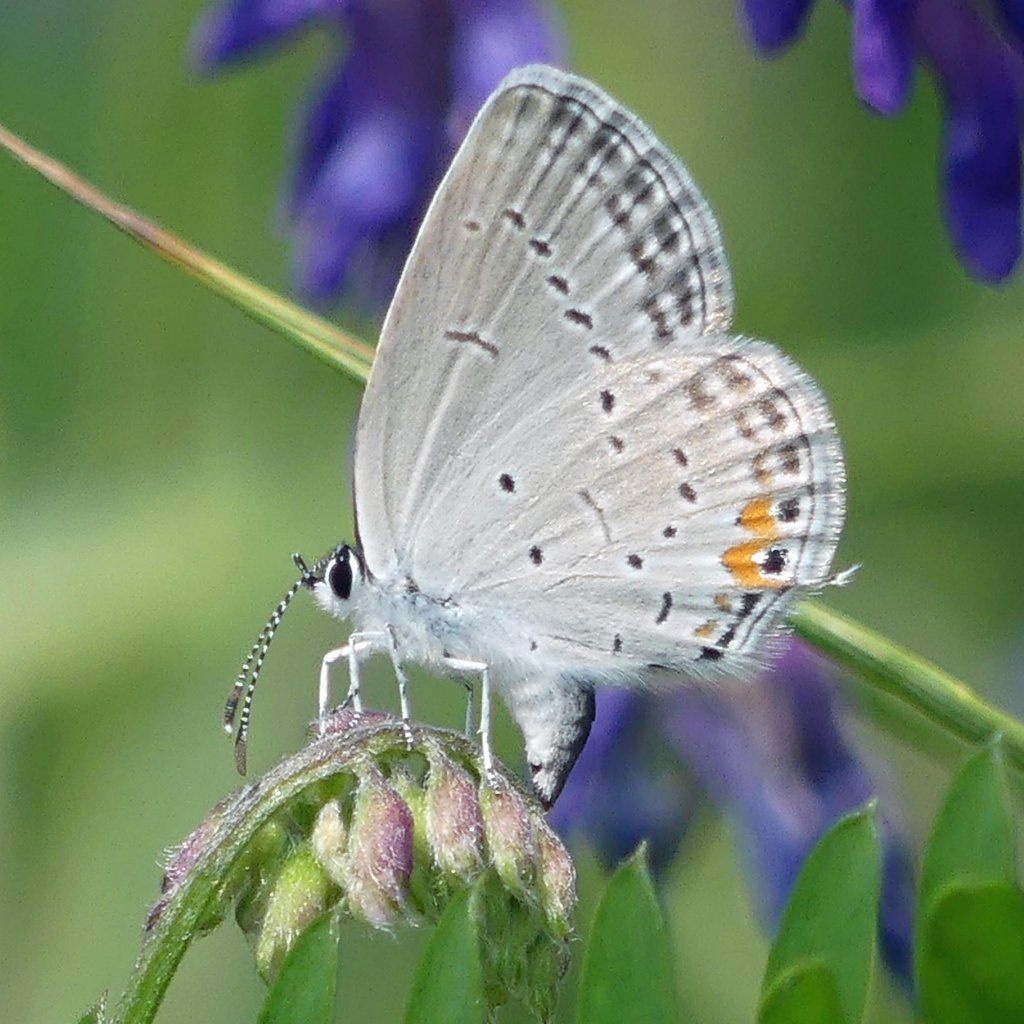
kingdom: Animalia
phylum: Arthropoda
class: Insecta
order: Lepidoptera
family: Lycaenidae
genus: Elkalyce
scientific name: Elkalyce comyntas
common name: Eastern Tailed-Blue
